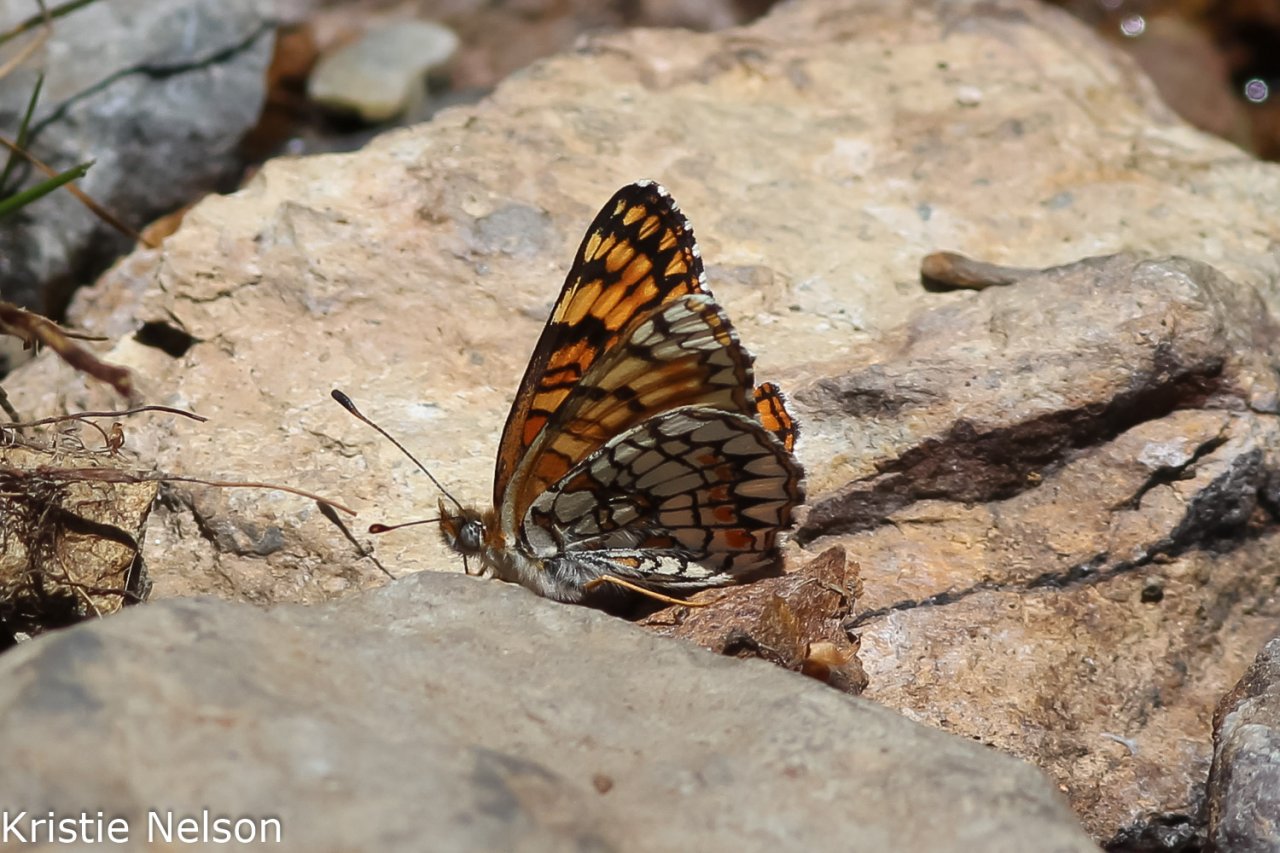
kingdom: Animalia
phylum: Arthropoda
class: Insecta
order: Lepidoptera
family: Nymphalidae
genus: Chlosyne
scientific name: Chlosyne acastus
